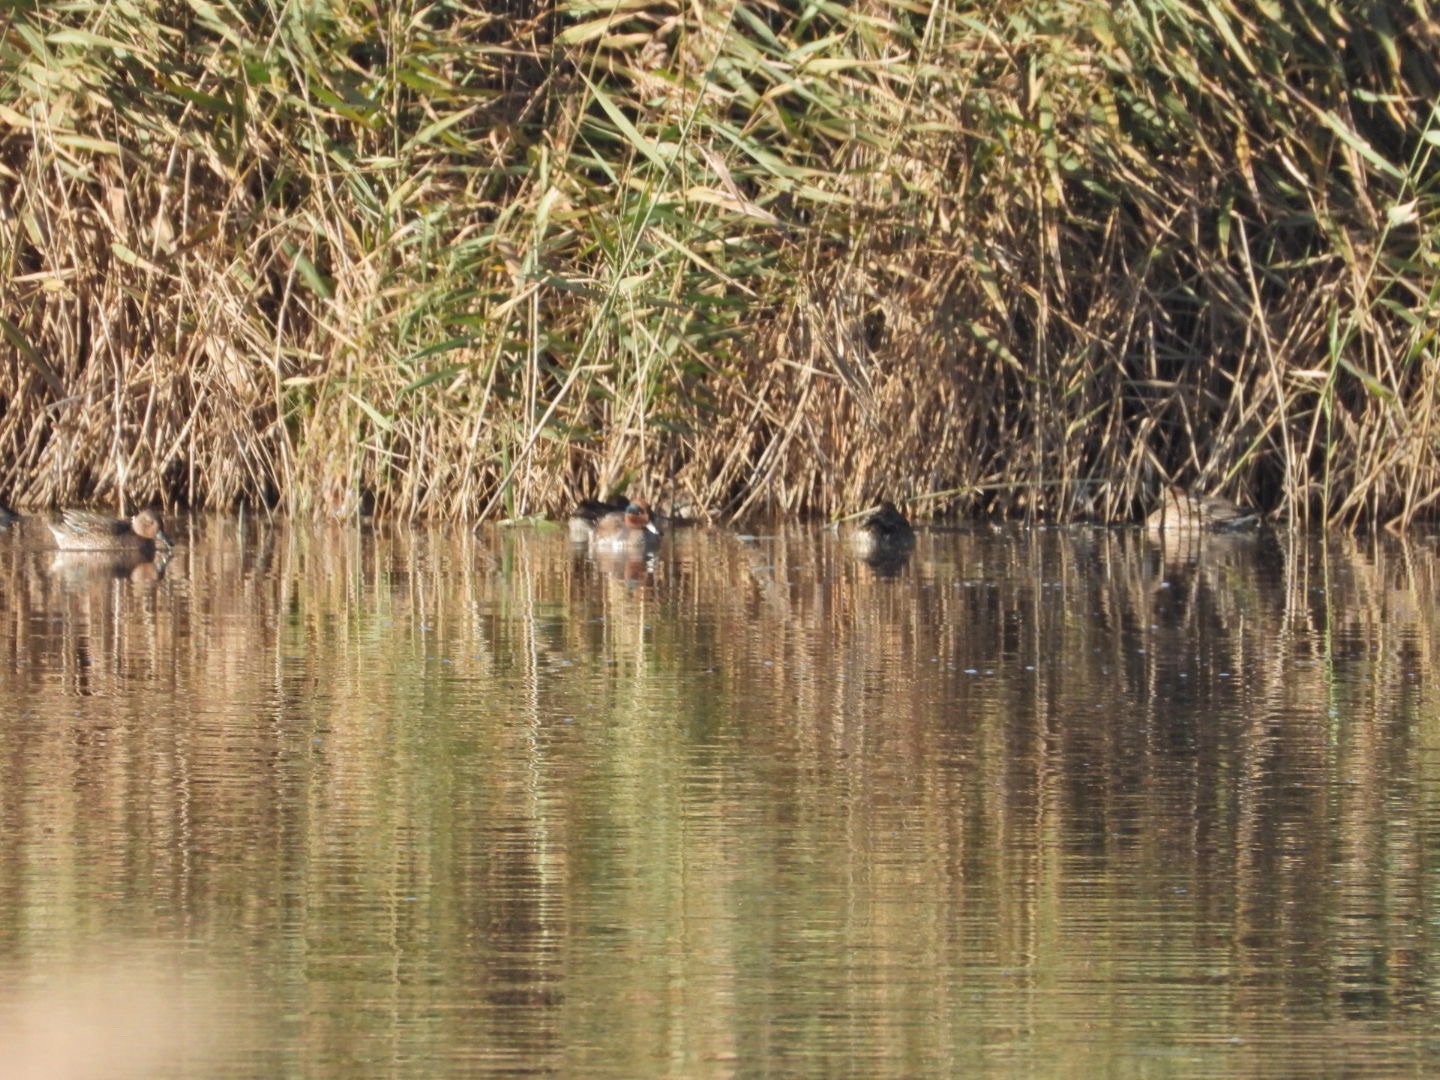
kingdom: Animalia
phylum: Chordata
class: Aves
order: Anseriformes
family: Anatidae
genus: Anas
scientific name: Anas crecca
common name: Krikand
